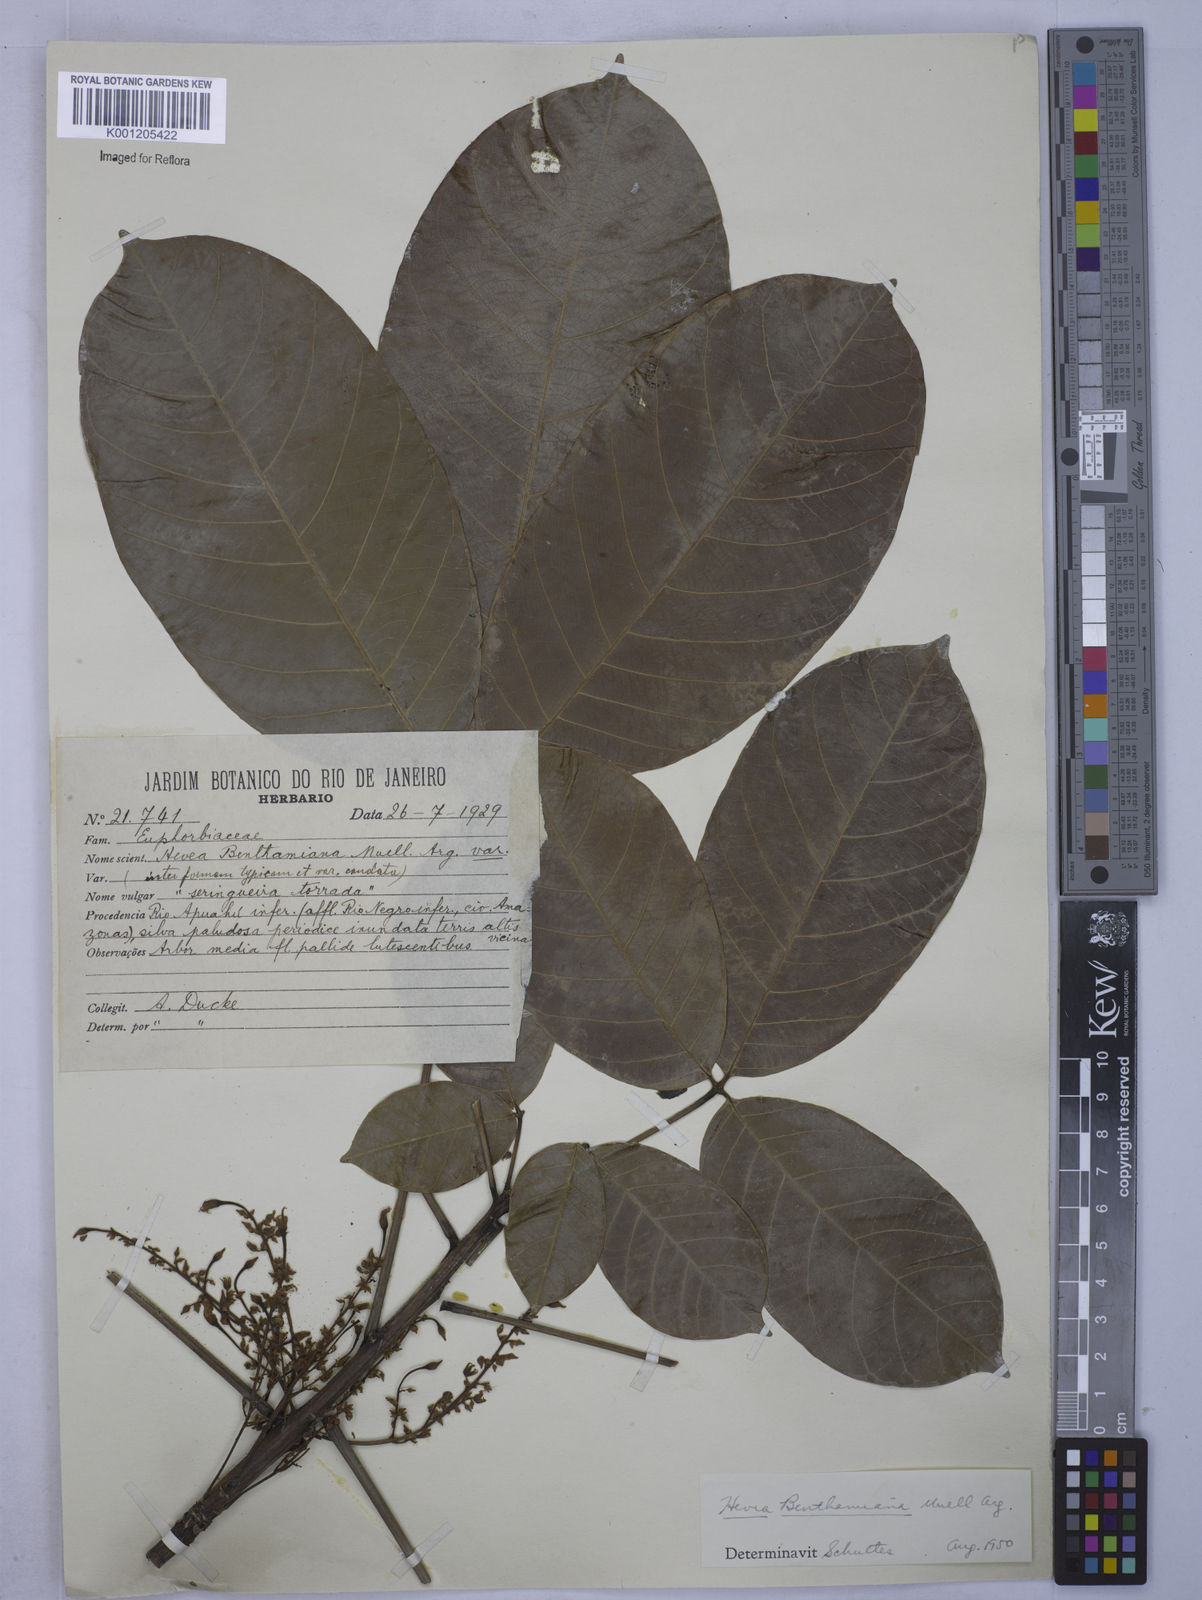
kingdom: Plantae
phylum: Tracheophyta
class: Magnoliopsida
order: Malpighiales
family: Euphorbiaceae
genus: Hevea
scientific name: Hevea benthamiana
